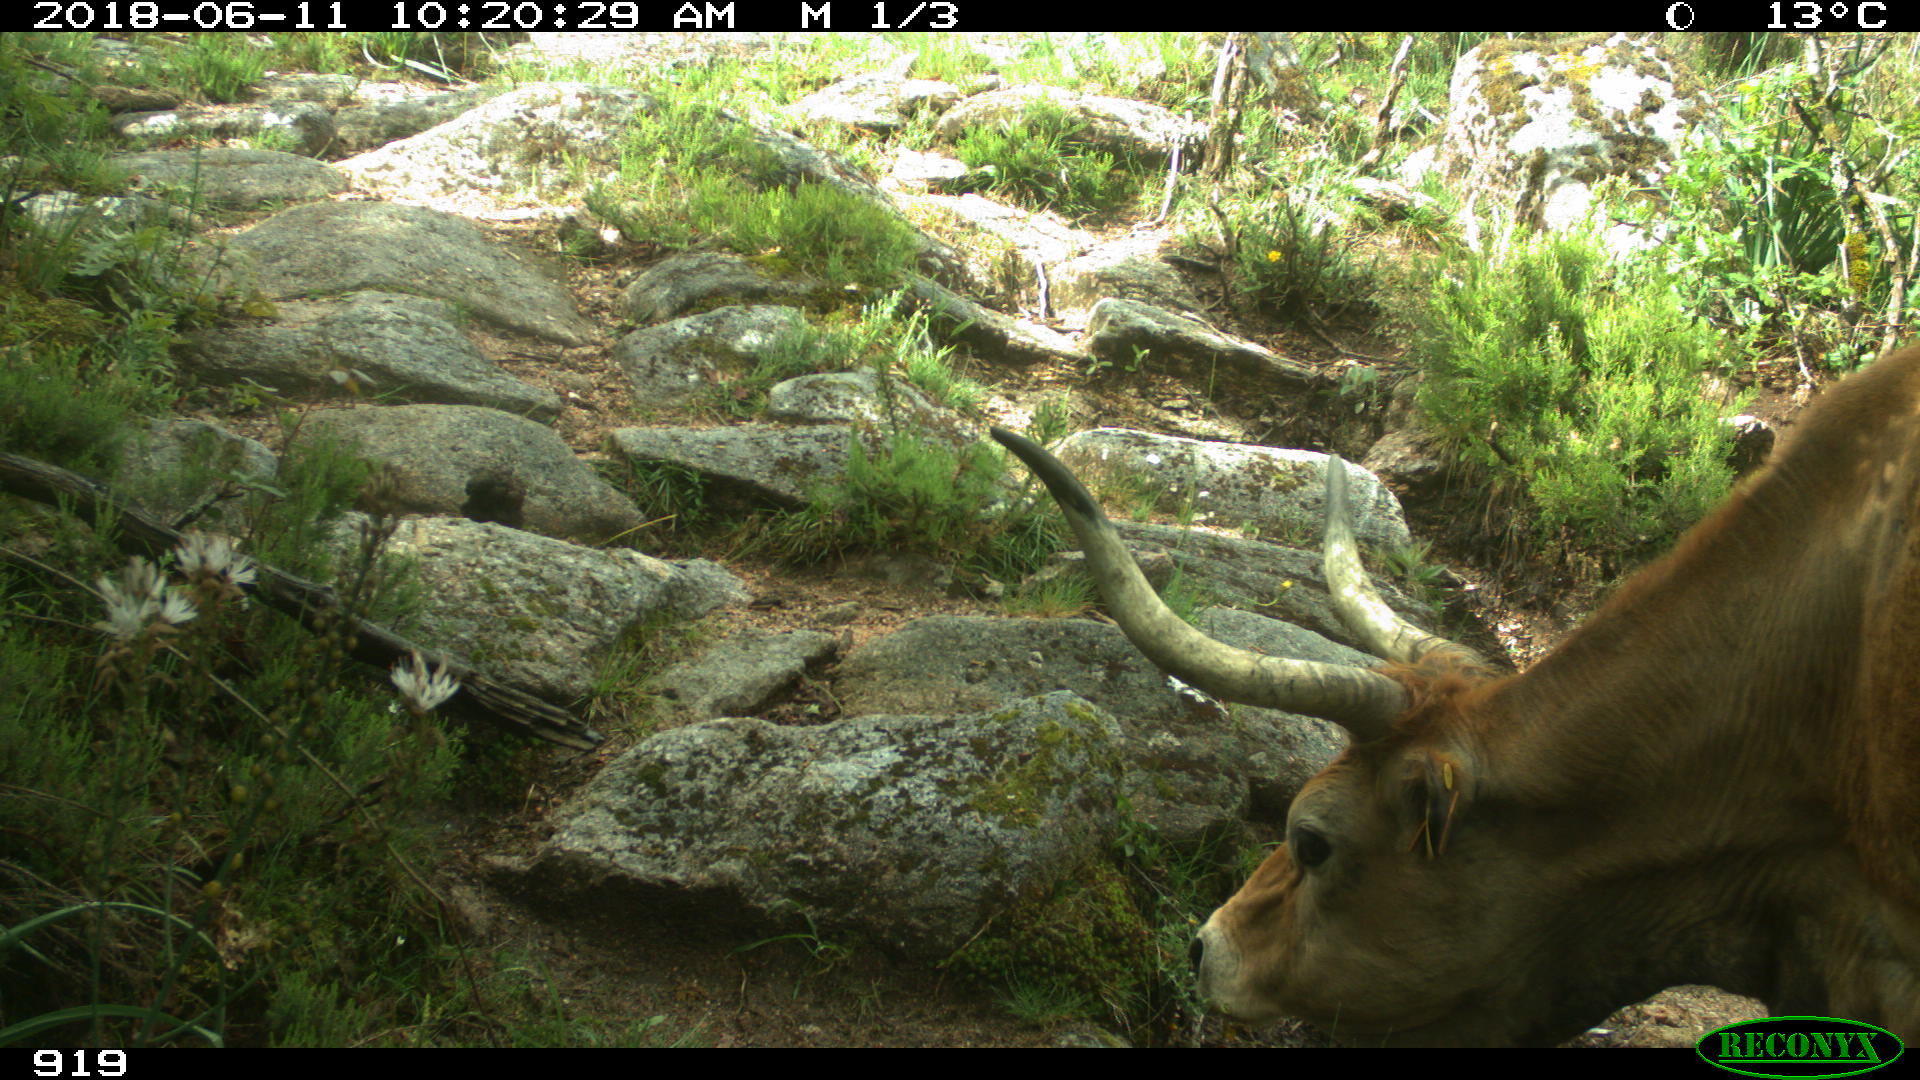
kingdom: Animalia
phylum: Chordata
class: Mammalia
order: Artiodactyla
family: Bovidae
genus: Bos
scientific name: Bos taurus
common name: Domesticated cattle
